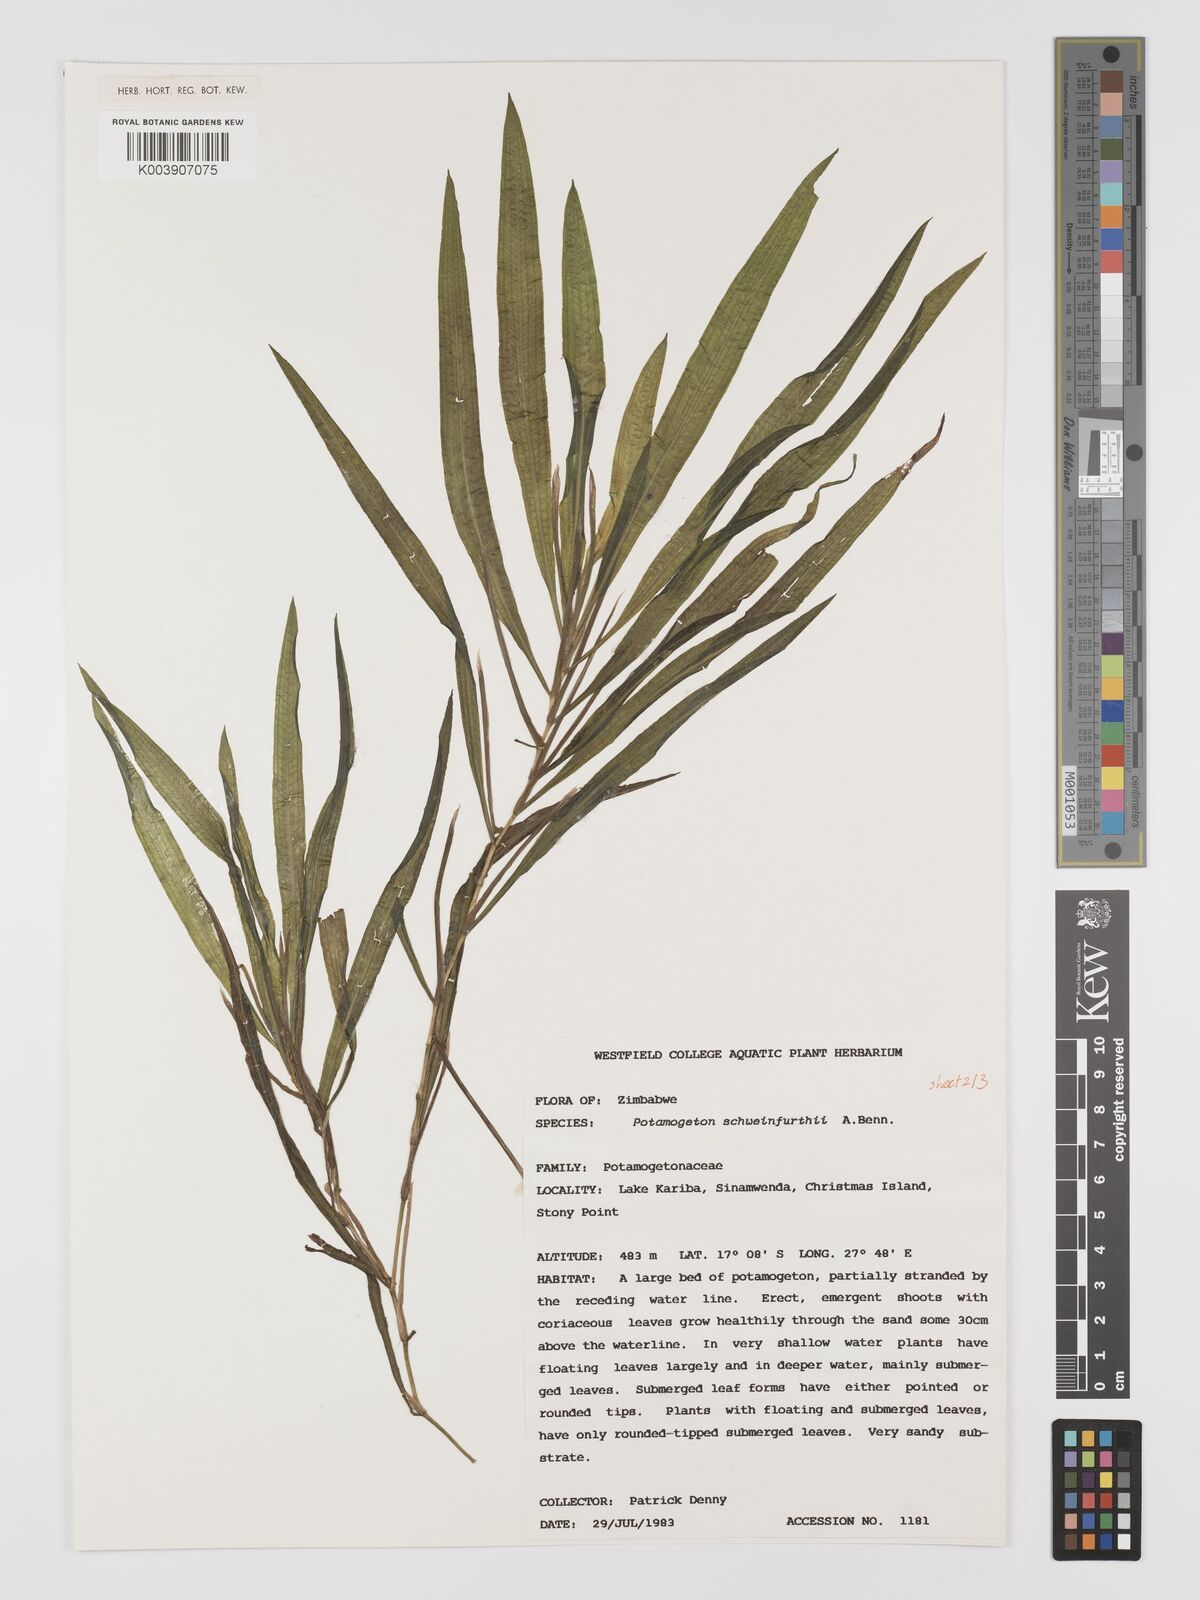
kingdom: Plantae
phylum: Tracheophyta
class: Liliopsida
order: Alismatales
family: Potamogetonaceae
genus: Potamogeton
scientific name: Potamogeton schweinfurthii
